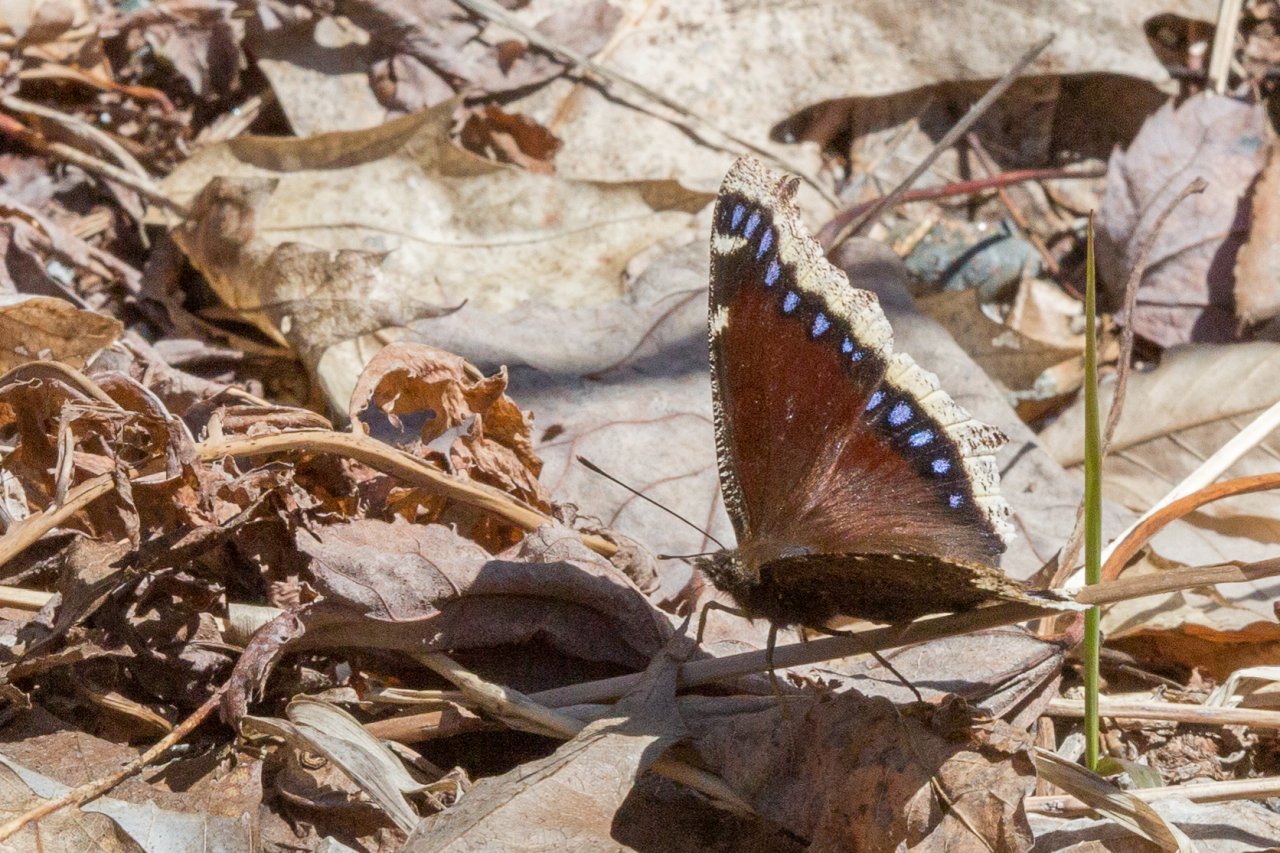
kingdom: Animalia
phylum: Arthropoda
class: Insecta
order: Lepidoptera
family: Nymphalidae
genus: Nymphalis
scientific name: Nymphalis antiopa
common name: Mourning Cloak
